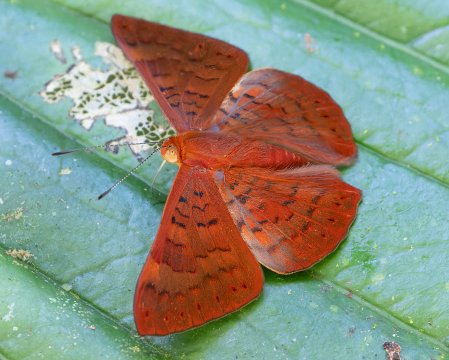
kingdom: Animalia
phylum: Arthropoda
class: Insecta
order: Lepidoptera
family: Lycaenidae
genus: Emesis
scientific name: Emesis mandana
